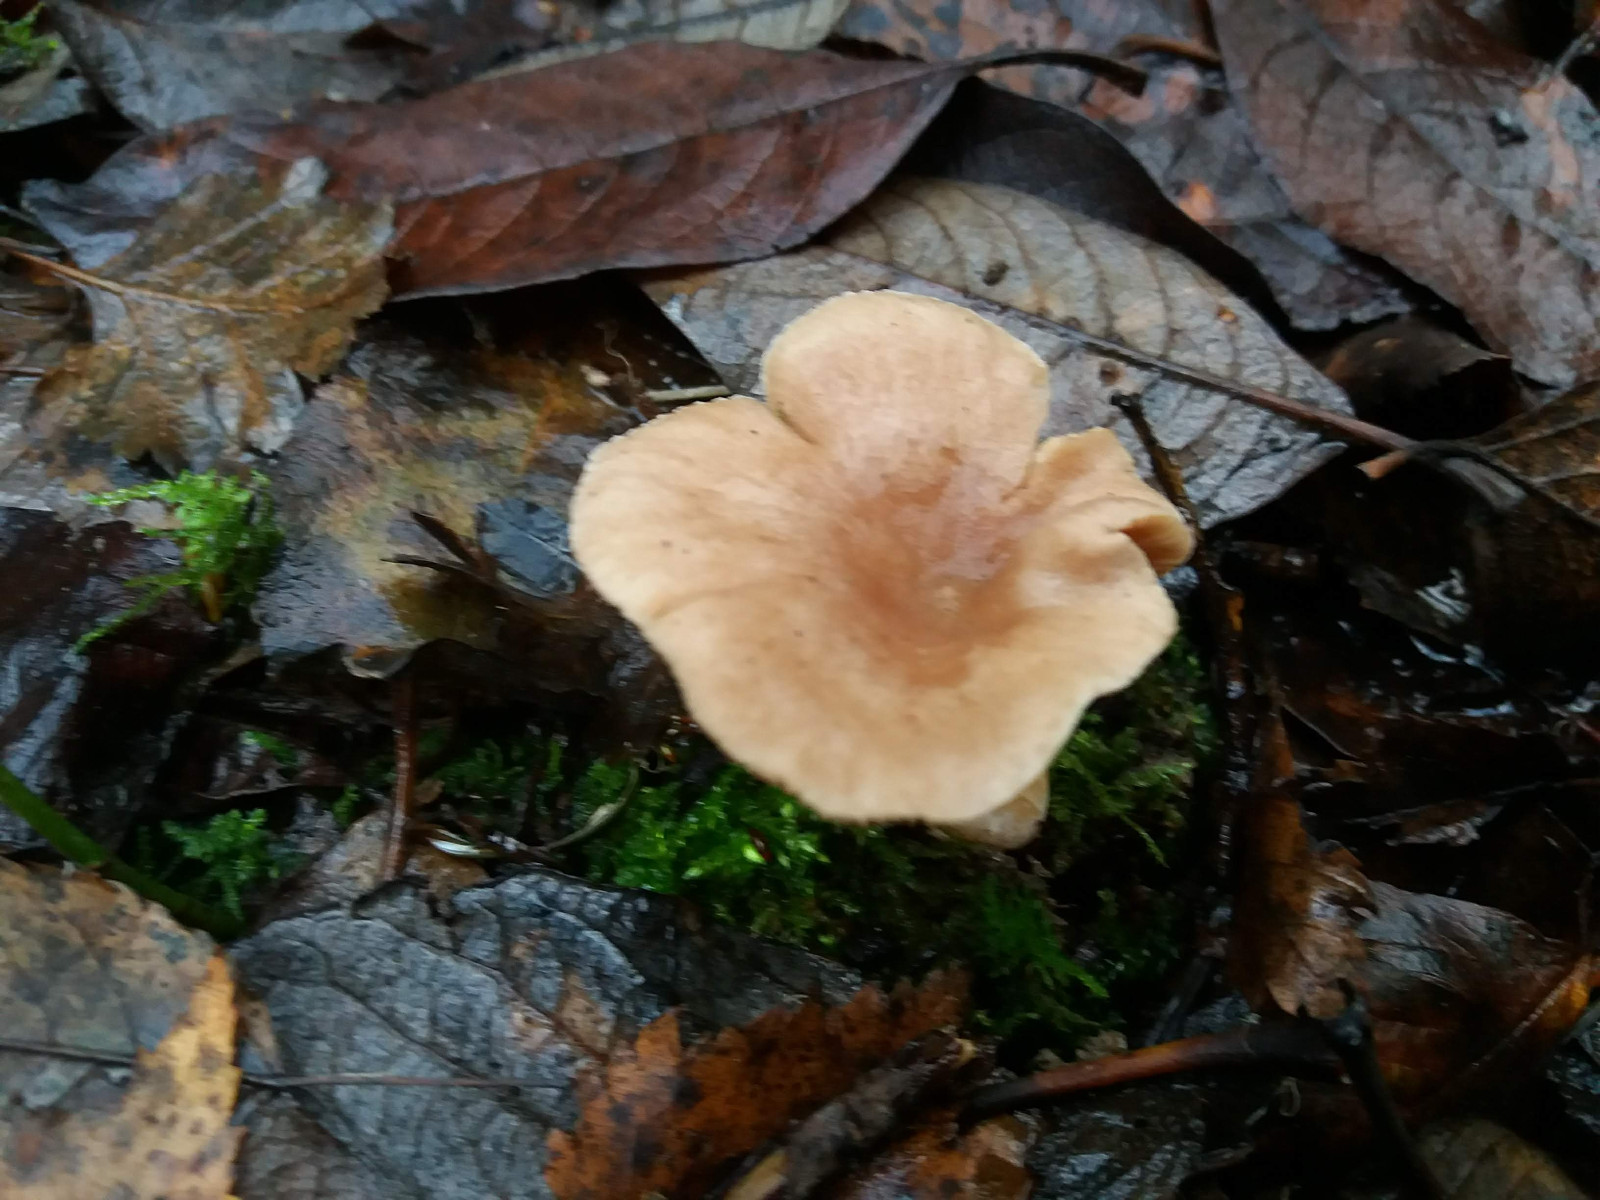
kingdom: Fungi
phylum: Basidiomycota
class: Agaricomycetes
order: Russulales
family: Russulaceae
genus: Lactarius
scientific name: Lactarius glyciosmus
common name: kokos-mælkehat
